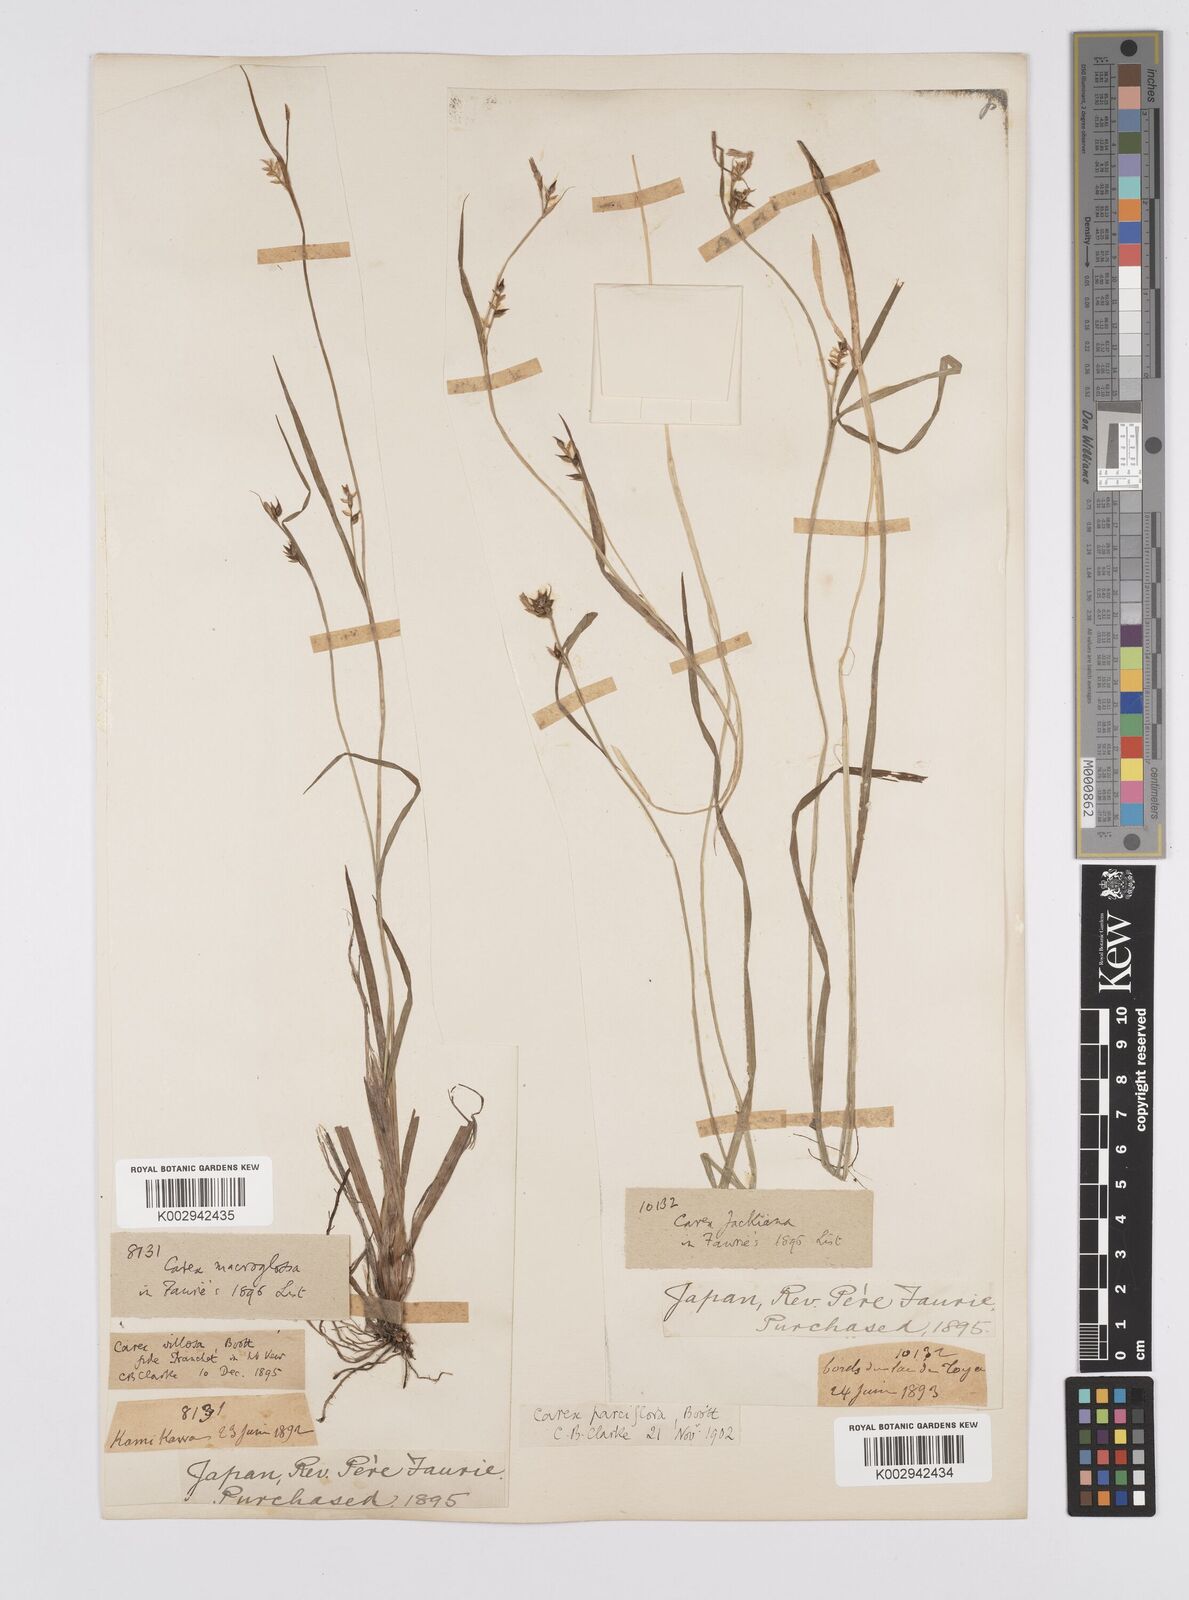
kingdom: Plantae
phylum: Tracheophyta
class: Liliopsida
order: Poales
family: Cyperaceae
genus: Carex
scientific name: Carex jackiana
